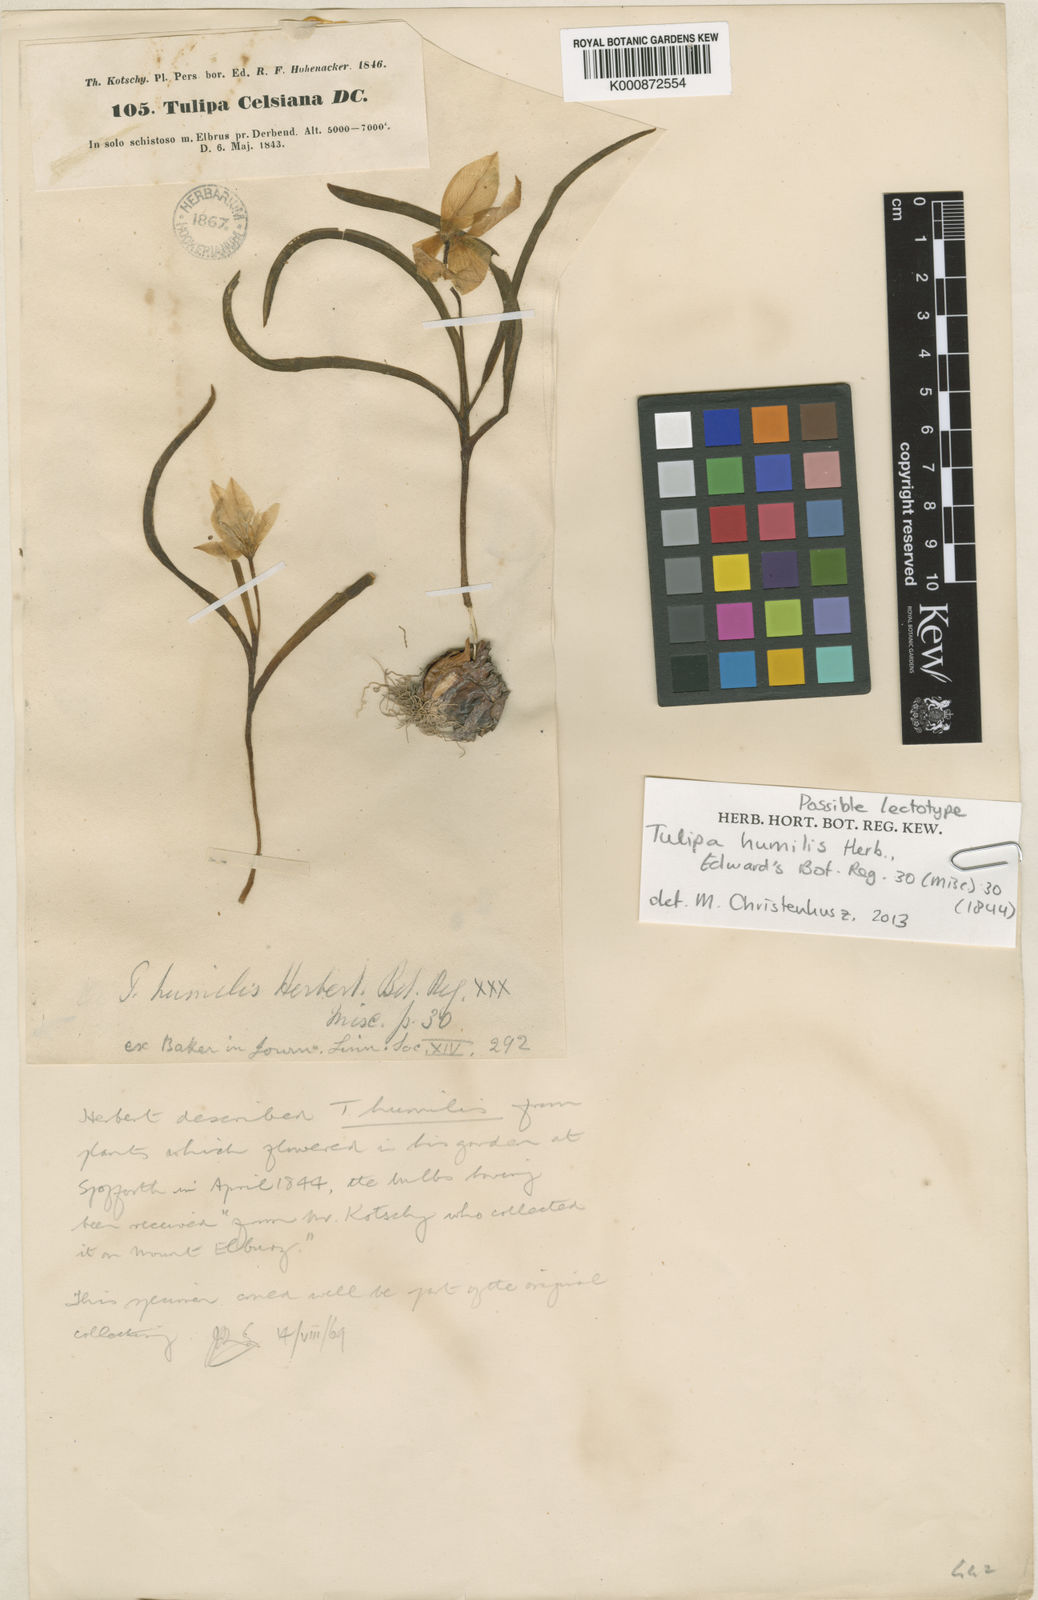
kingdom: Plantae
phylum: Tracheophyta
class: Liliopsida
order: Liliales
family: Liliaceae
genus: Tulipa
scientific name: Tulipa humilis
